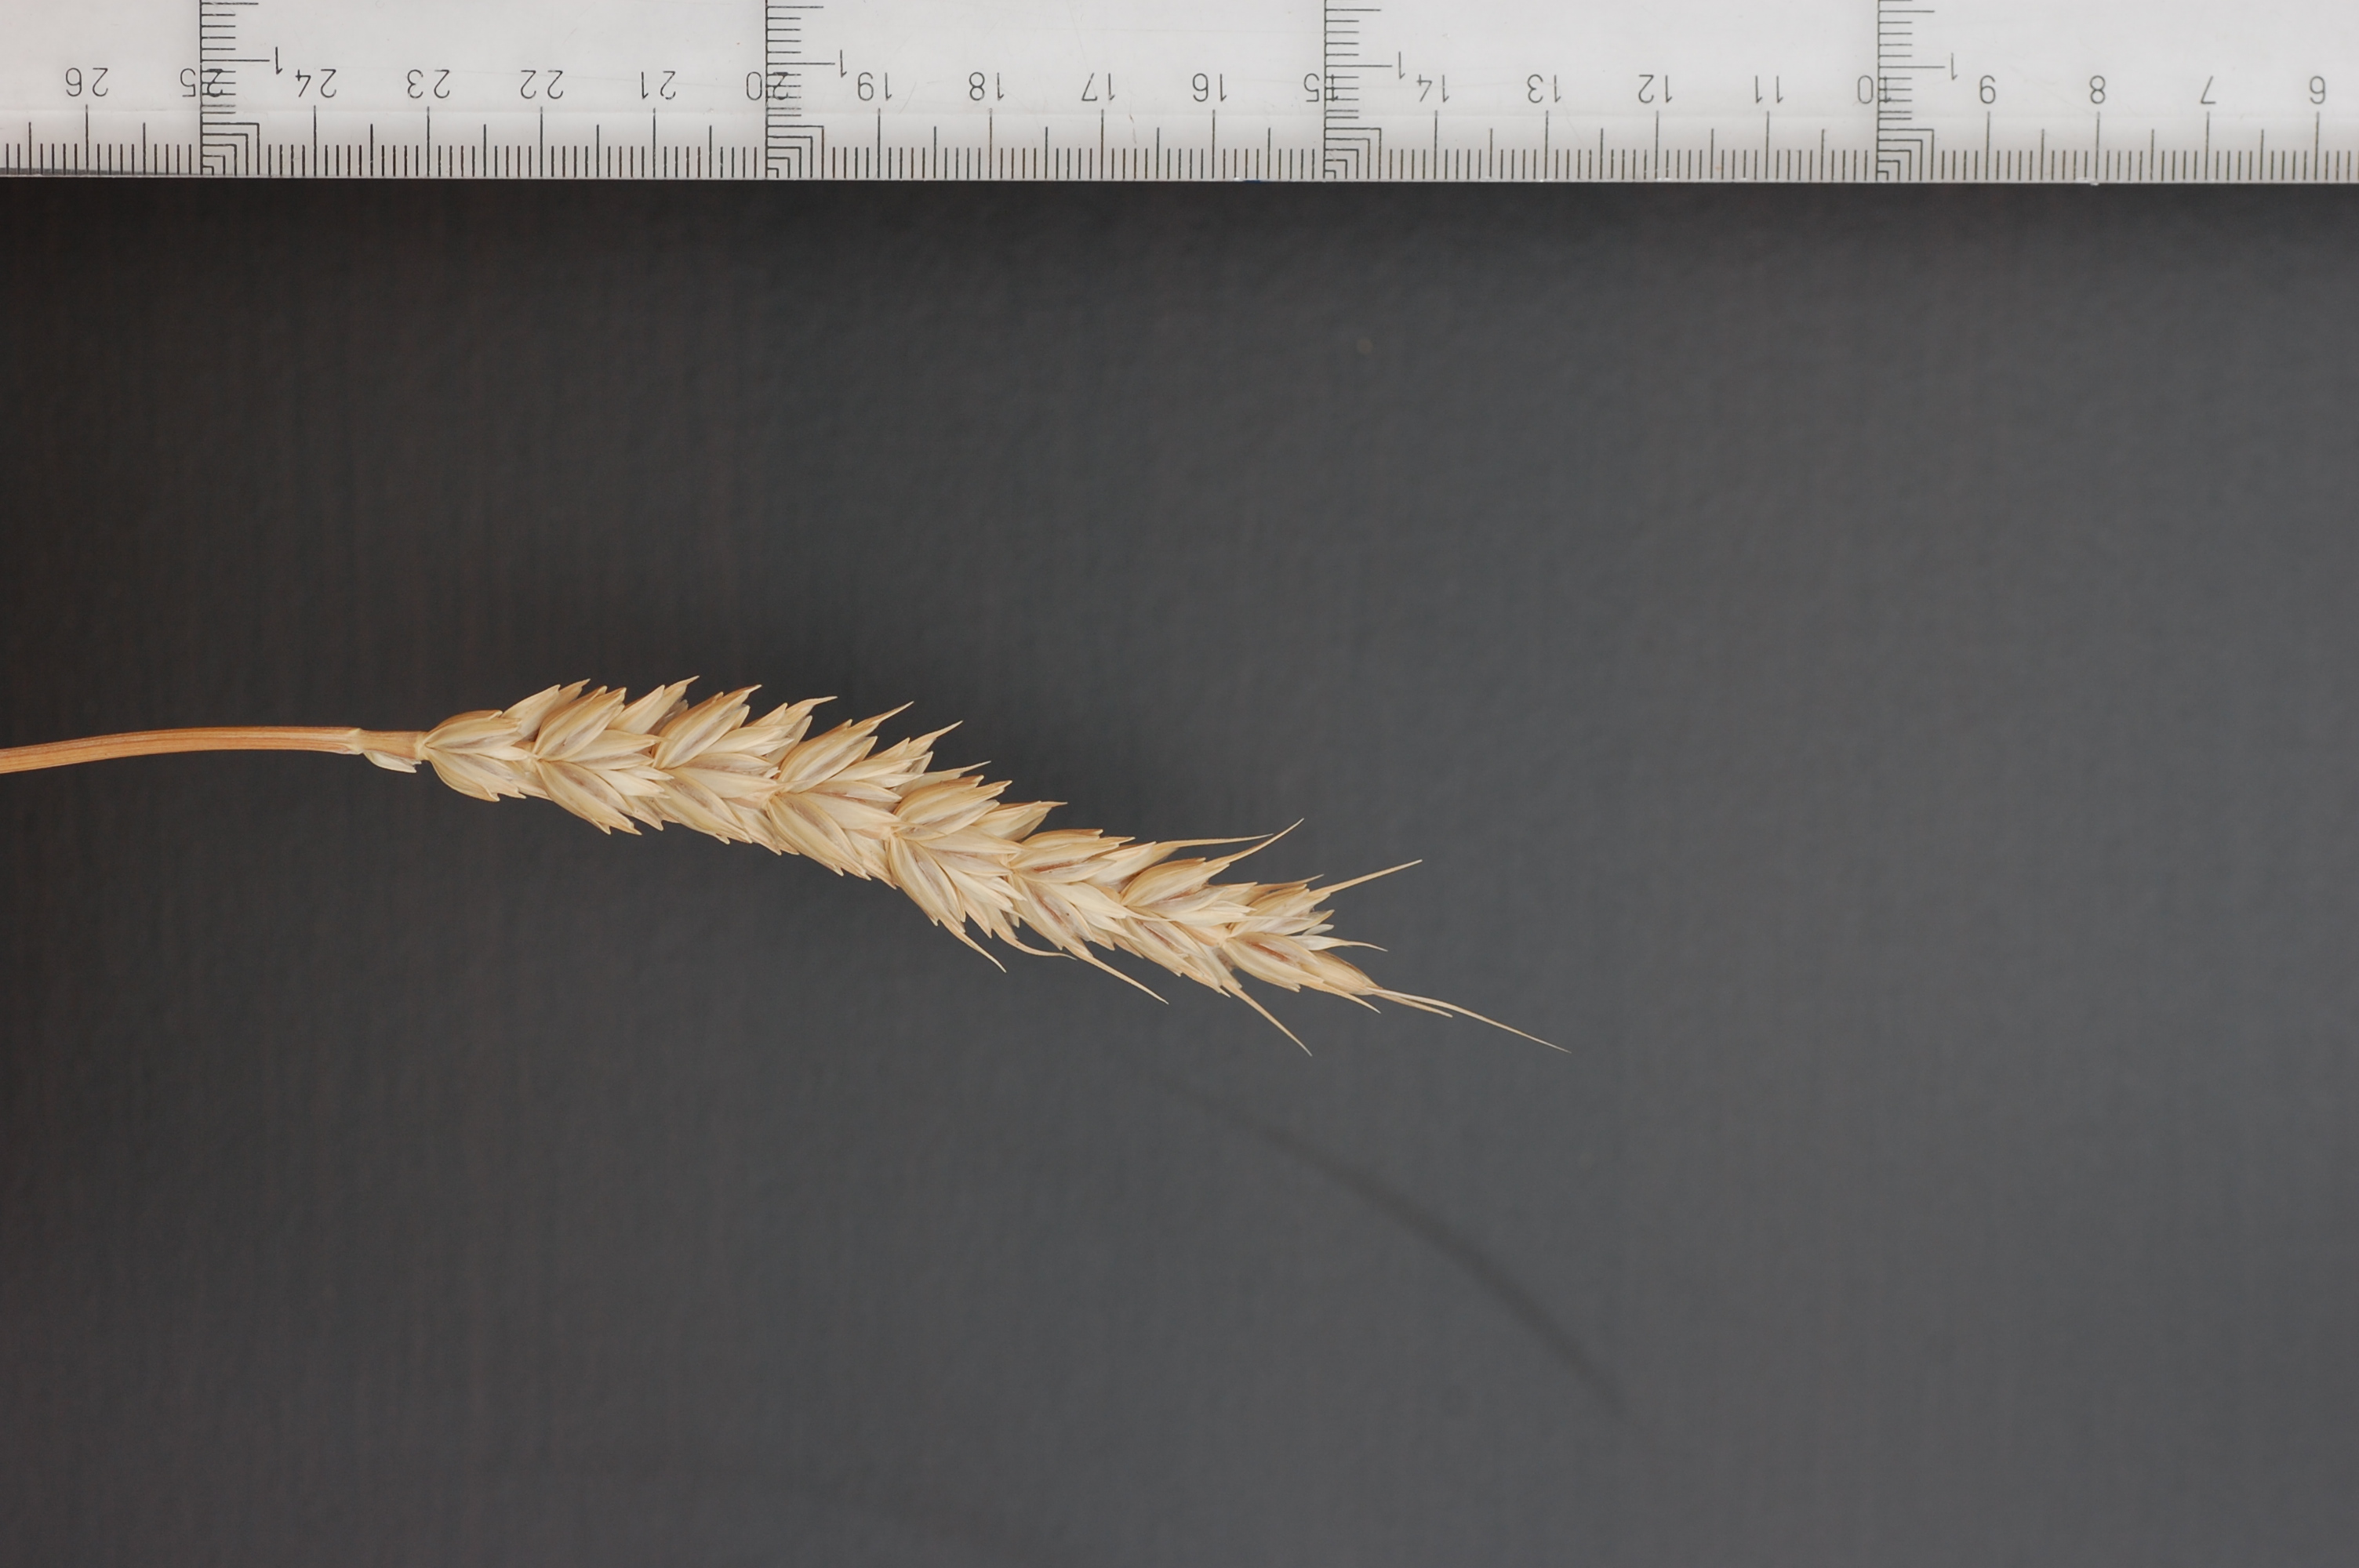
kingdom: Plantae
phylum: Tracheophyta
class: Liliopsida
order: Poales
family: Poaceae
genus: Triticum
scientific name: Triticum aestivum
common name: Common wheat
